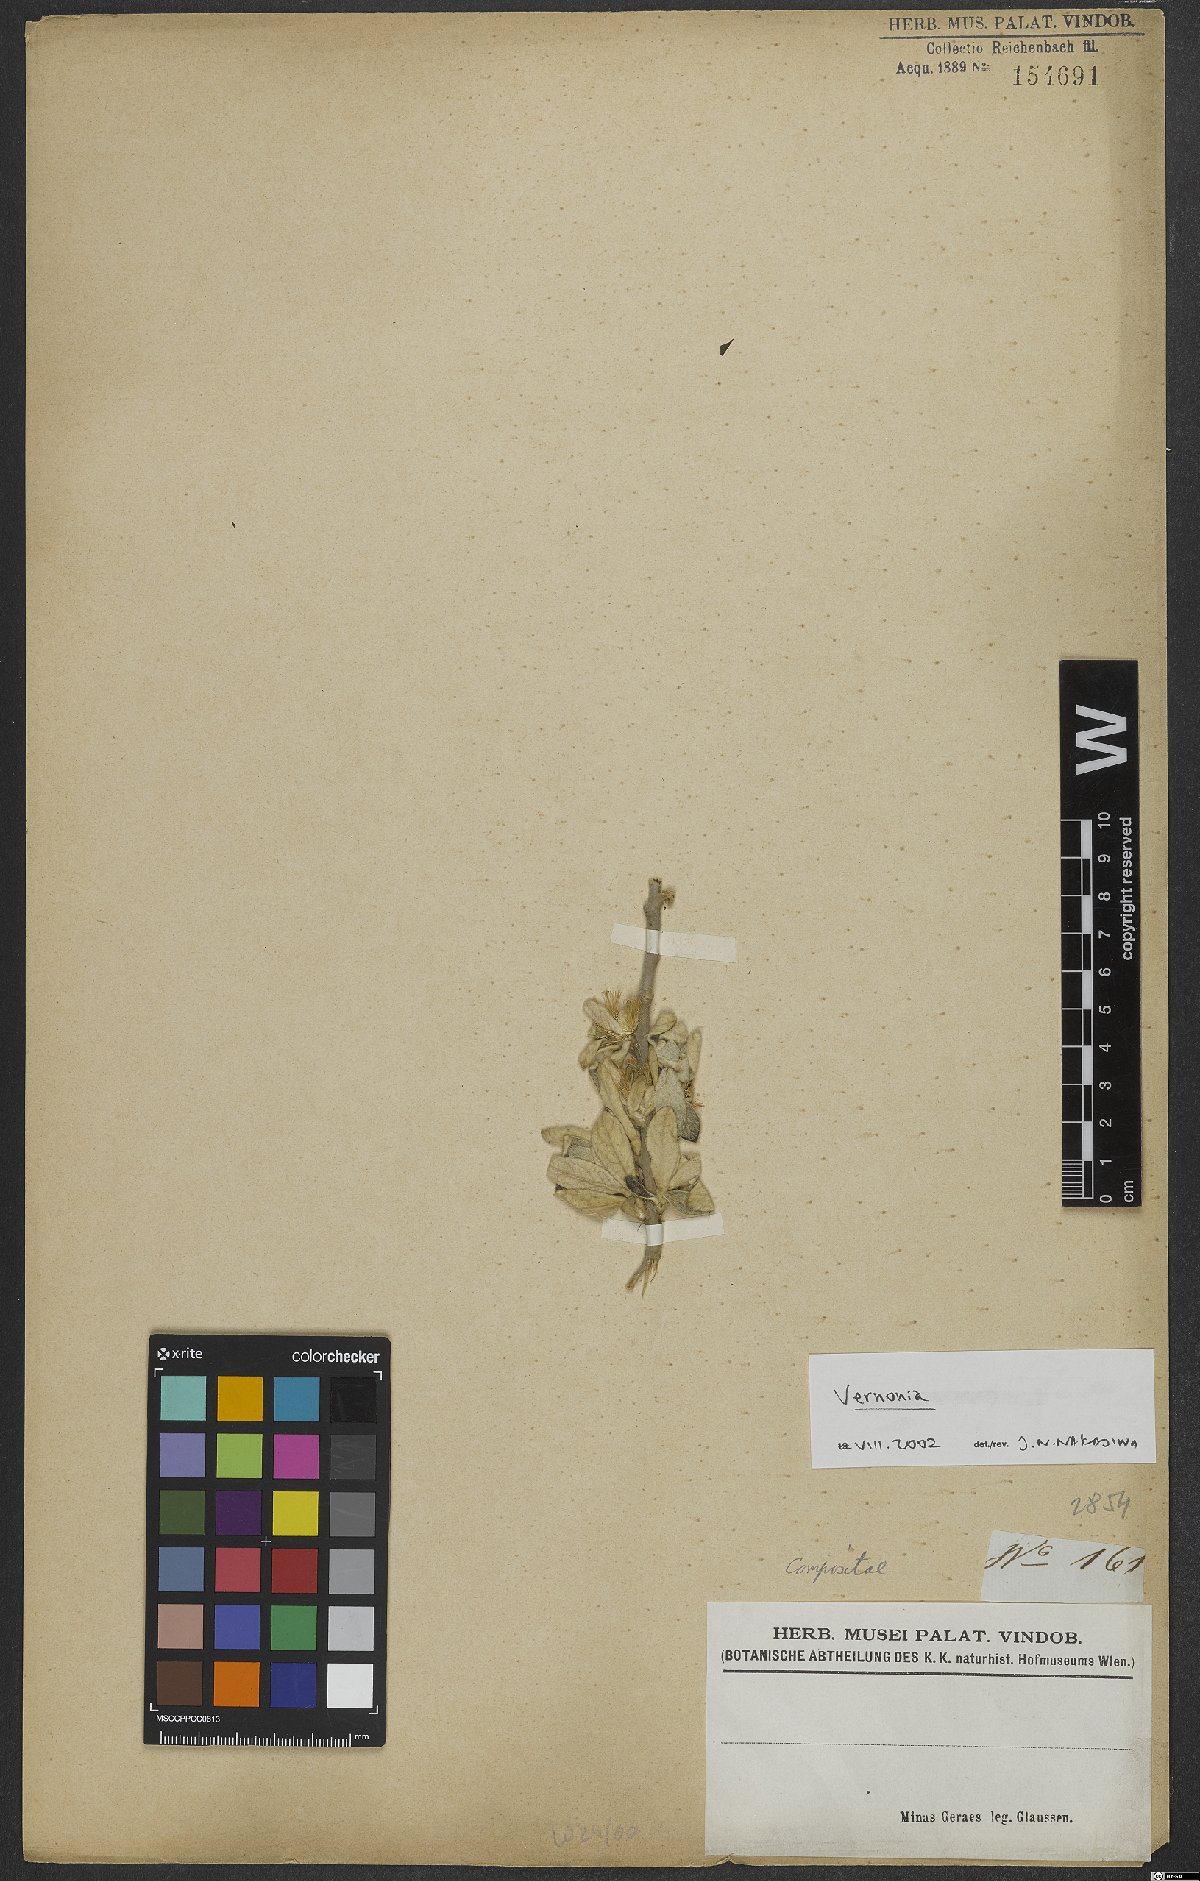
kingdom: Plantae
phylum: Tracheophyta
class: Magnoliopsida
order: Asterales
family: Asteraceae
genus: Vernonia
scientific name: Vernonia
